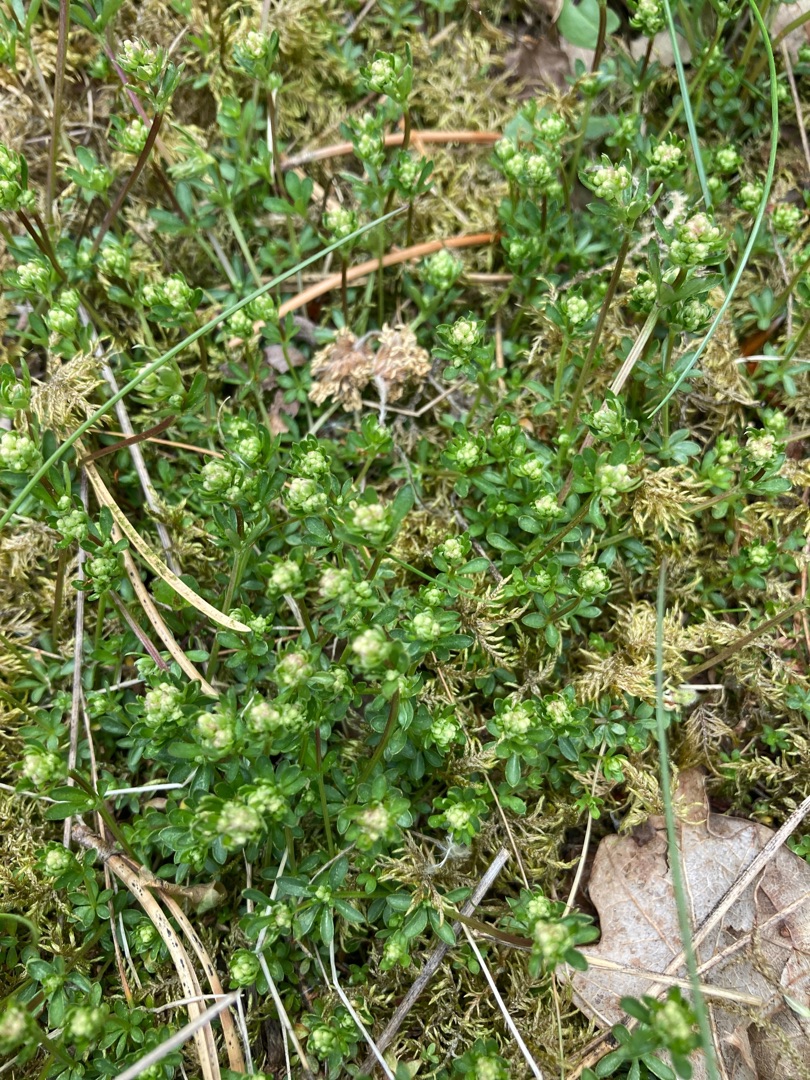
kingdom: Plantae
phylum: Tracheophyta
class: Magnoliopsida
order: Gentianales
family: Rubiaceae
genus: Galium
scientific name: Galium saxatile
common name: Lyng-snerre
